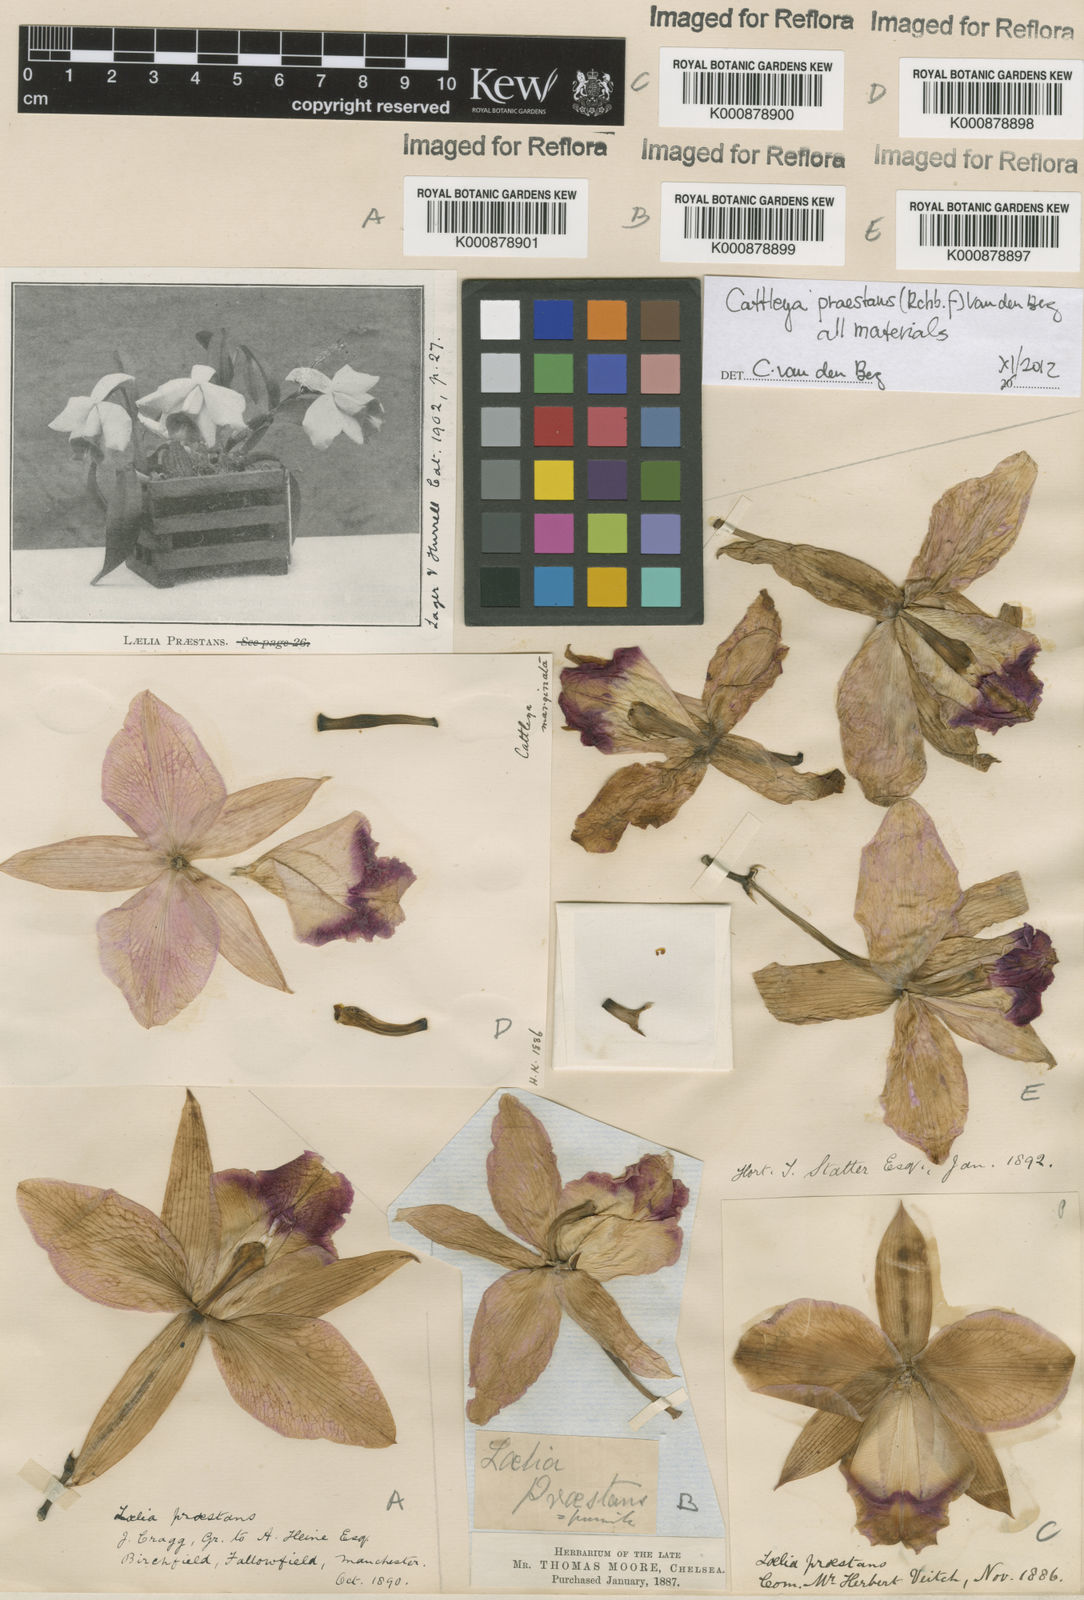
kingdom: Plantae
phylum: Tracheophyta
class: Liliopsida
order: Asparagales
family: Orchidaceae
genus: Cattleya
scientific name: Cattleya praestans
